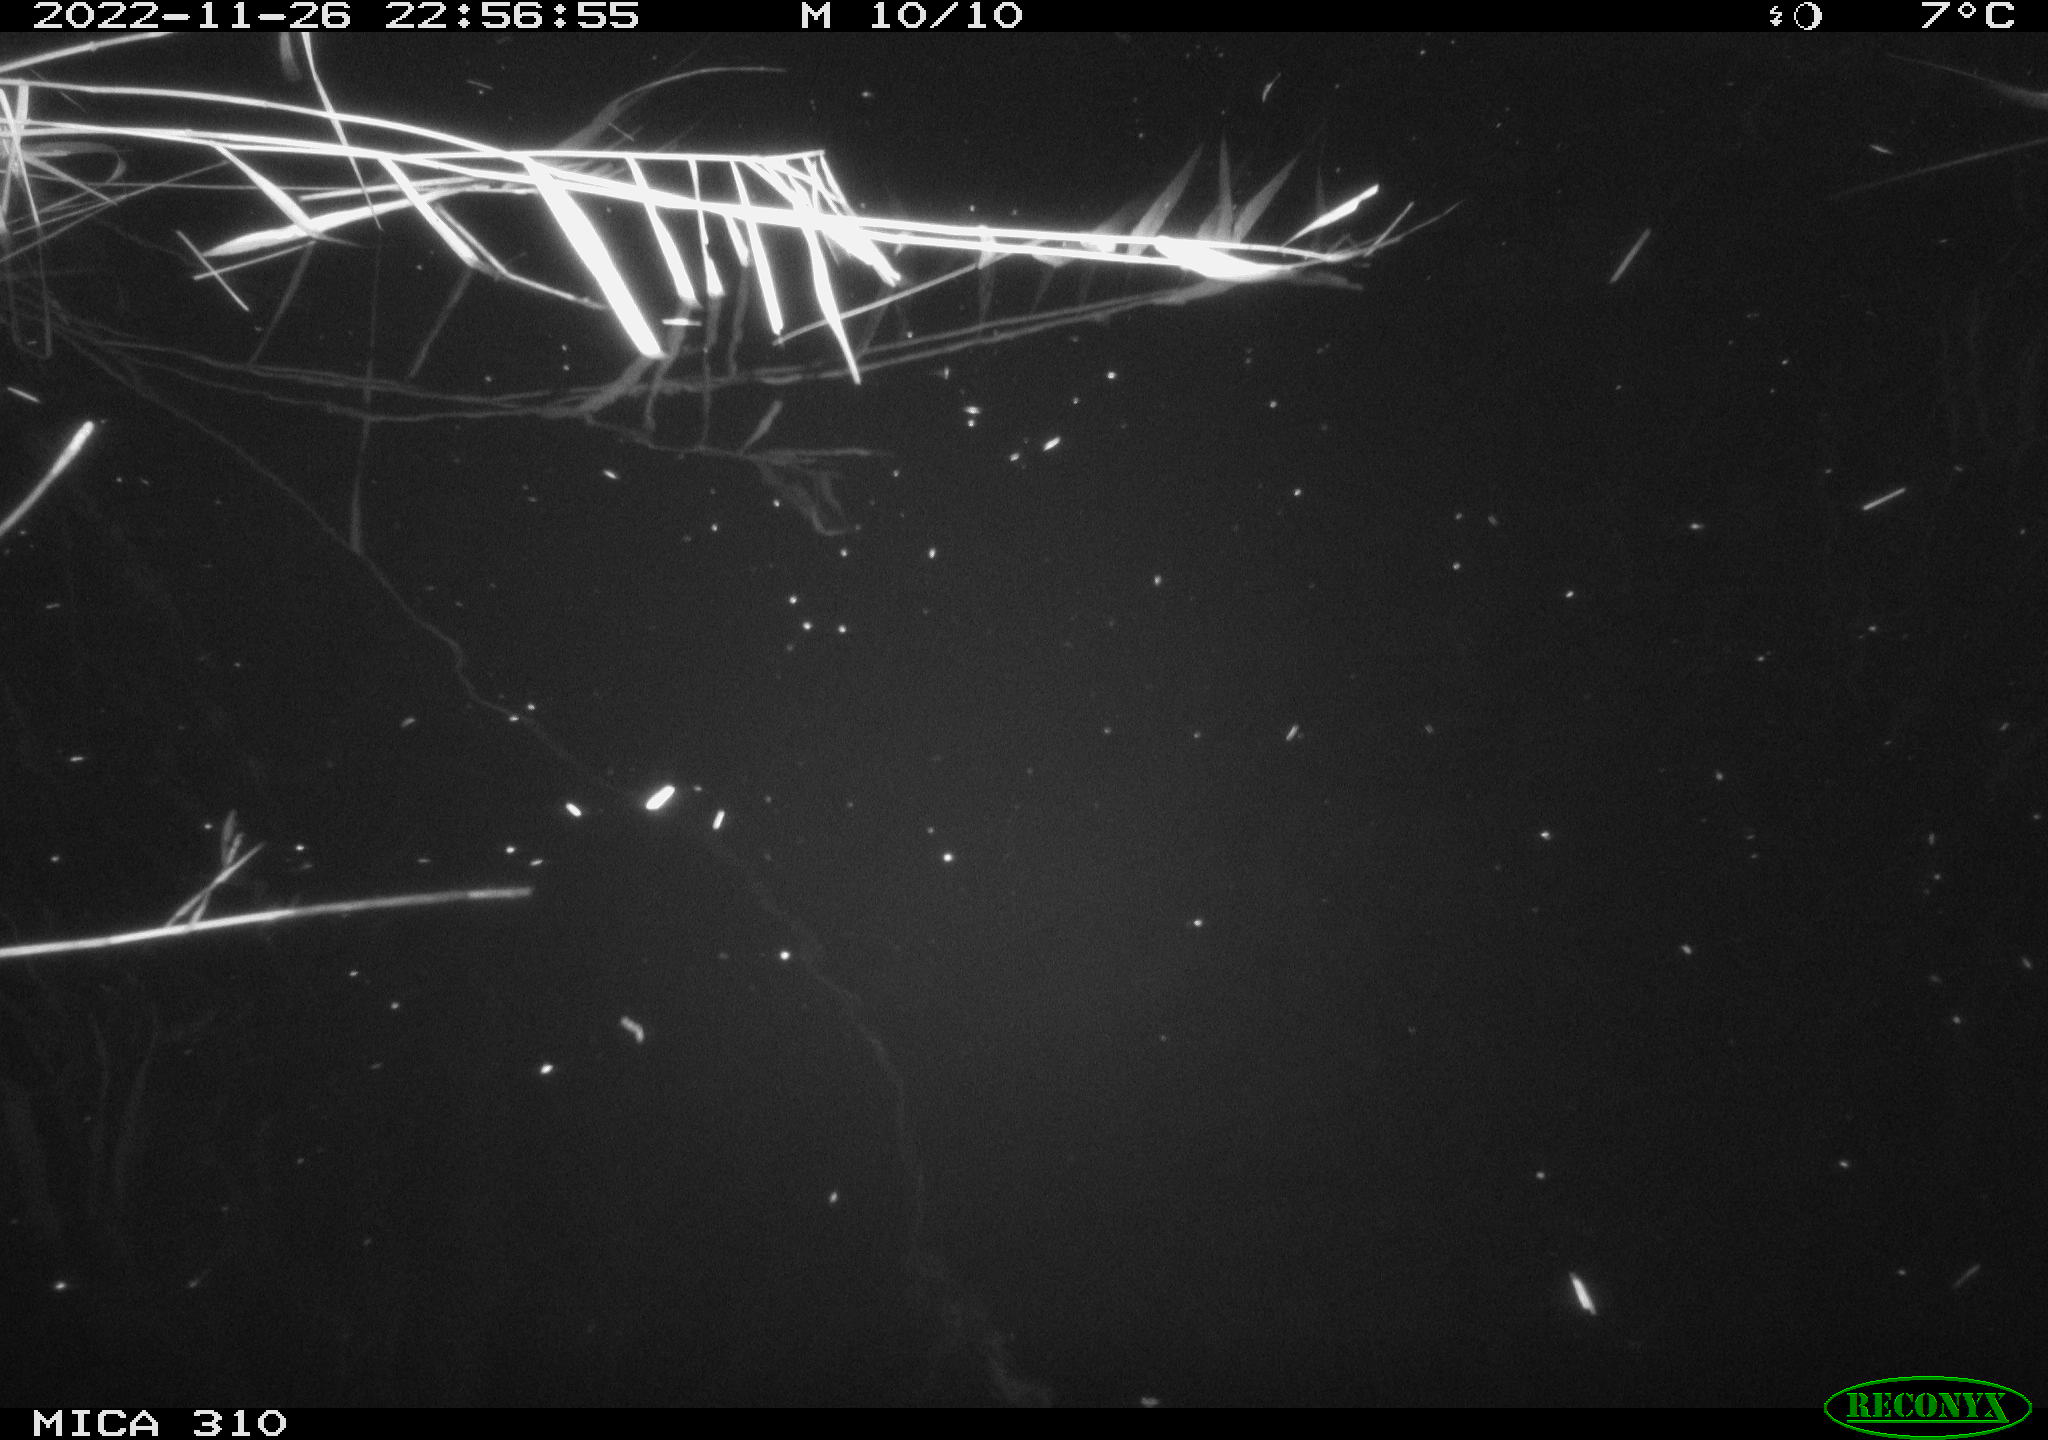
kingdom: Animalia
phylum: Chordata
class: Mammalia
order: Rodentia
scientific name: Rodentia
